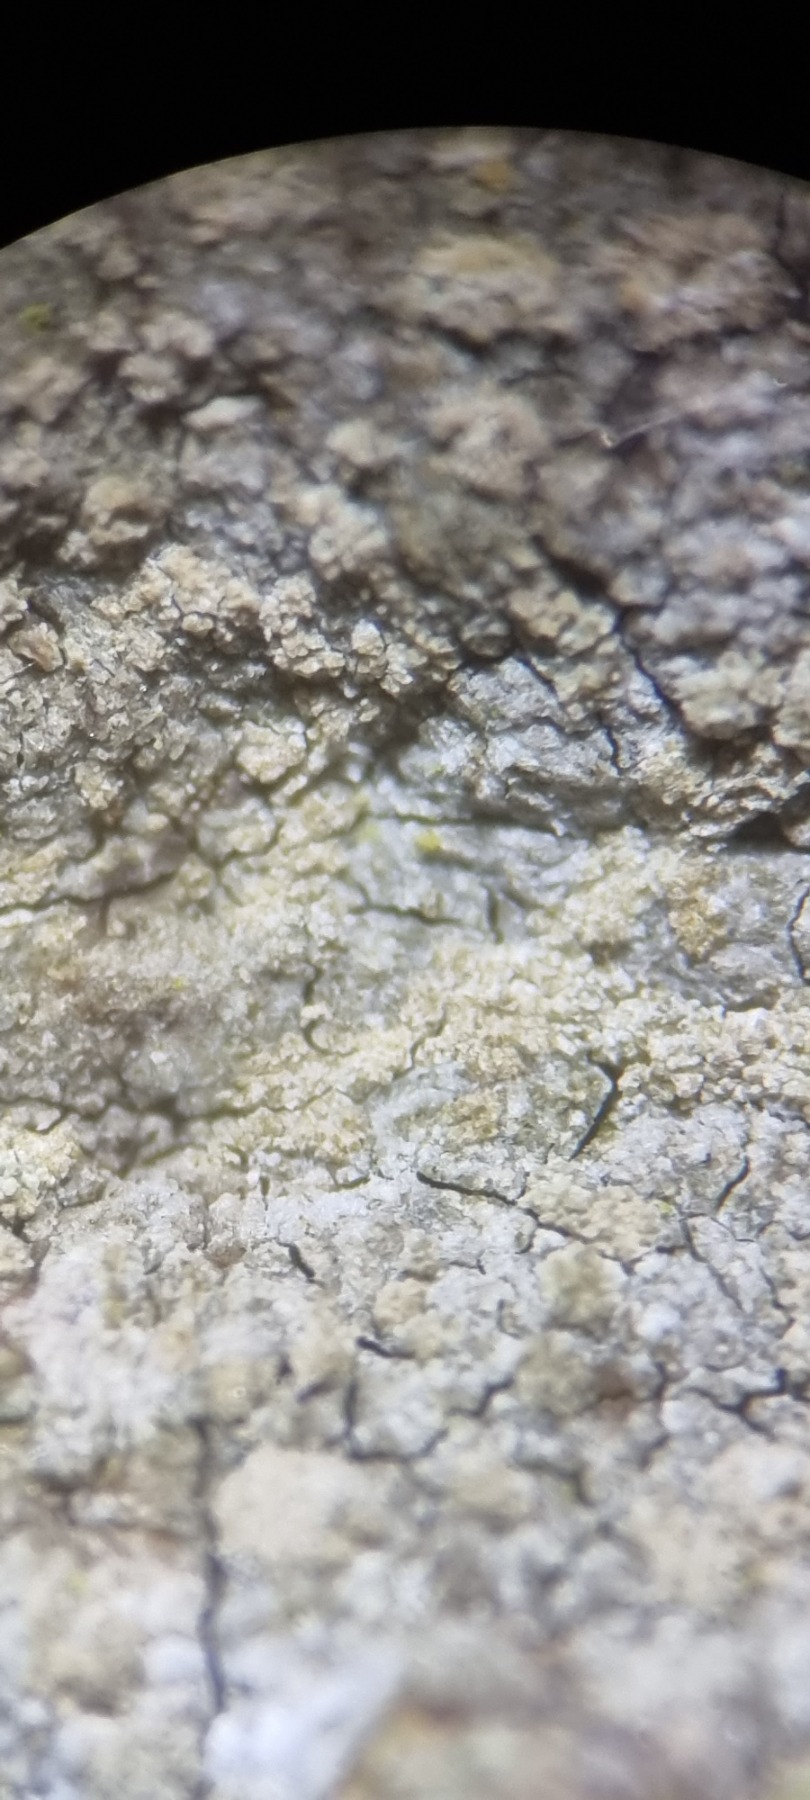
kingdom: Fungi
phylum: Ascomycota
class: Arthoniomycetes
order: Arthoniales
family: Roccellaceae
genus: Dendrographa
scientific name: Dendrographa decolorans
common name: Forskelligfarvet skurvelav
